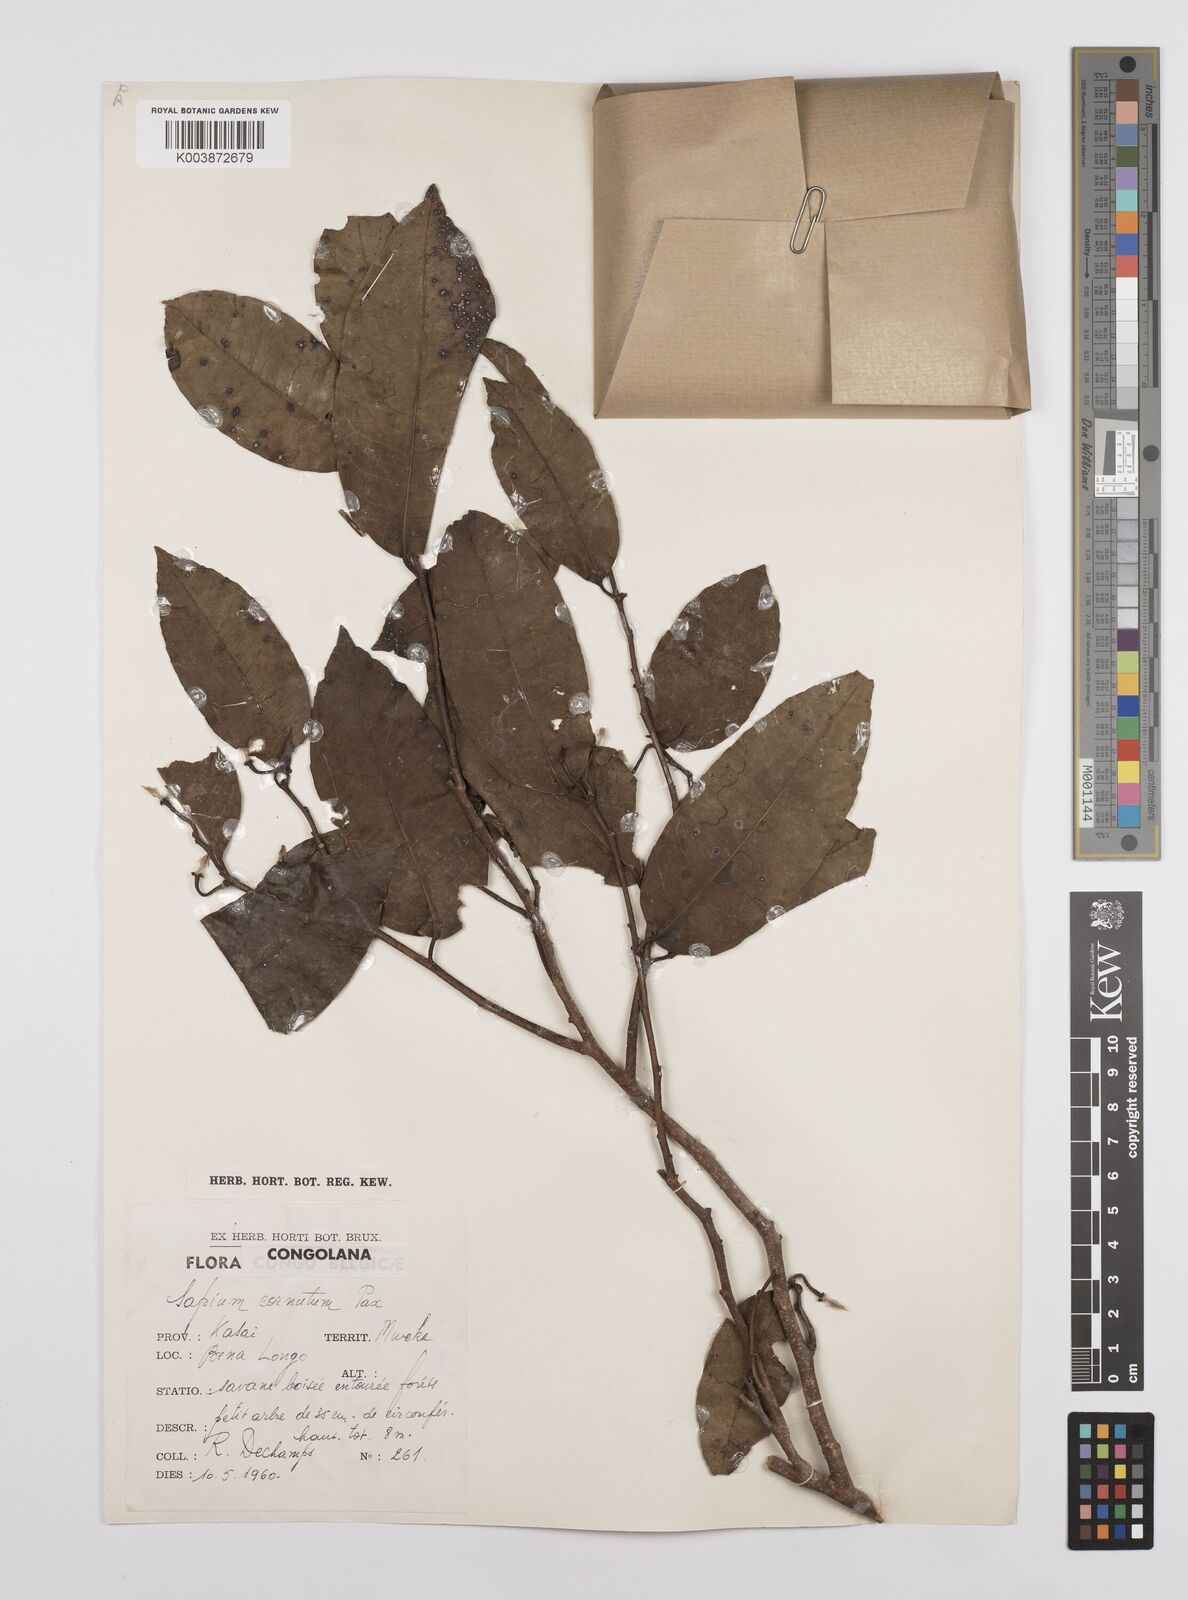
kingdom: Plantae
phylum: Tracheophyta
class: Magnoliopsida
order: Malpighiales
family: Euphorbiaceae
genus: Sclerocroton
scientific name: Sclerocroton cornutus
